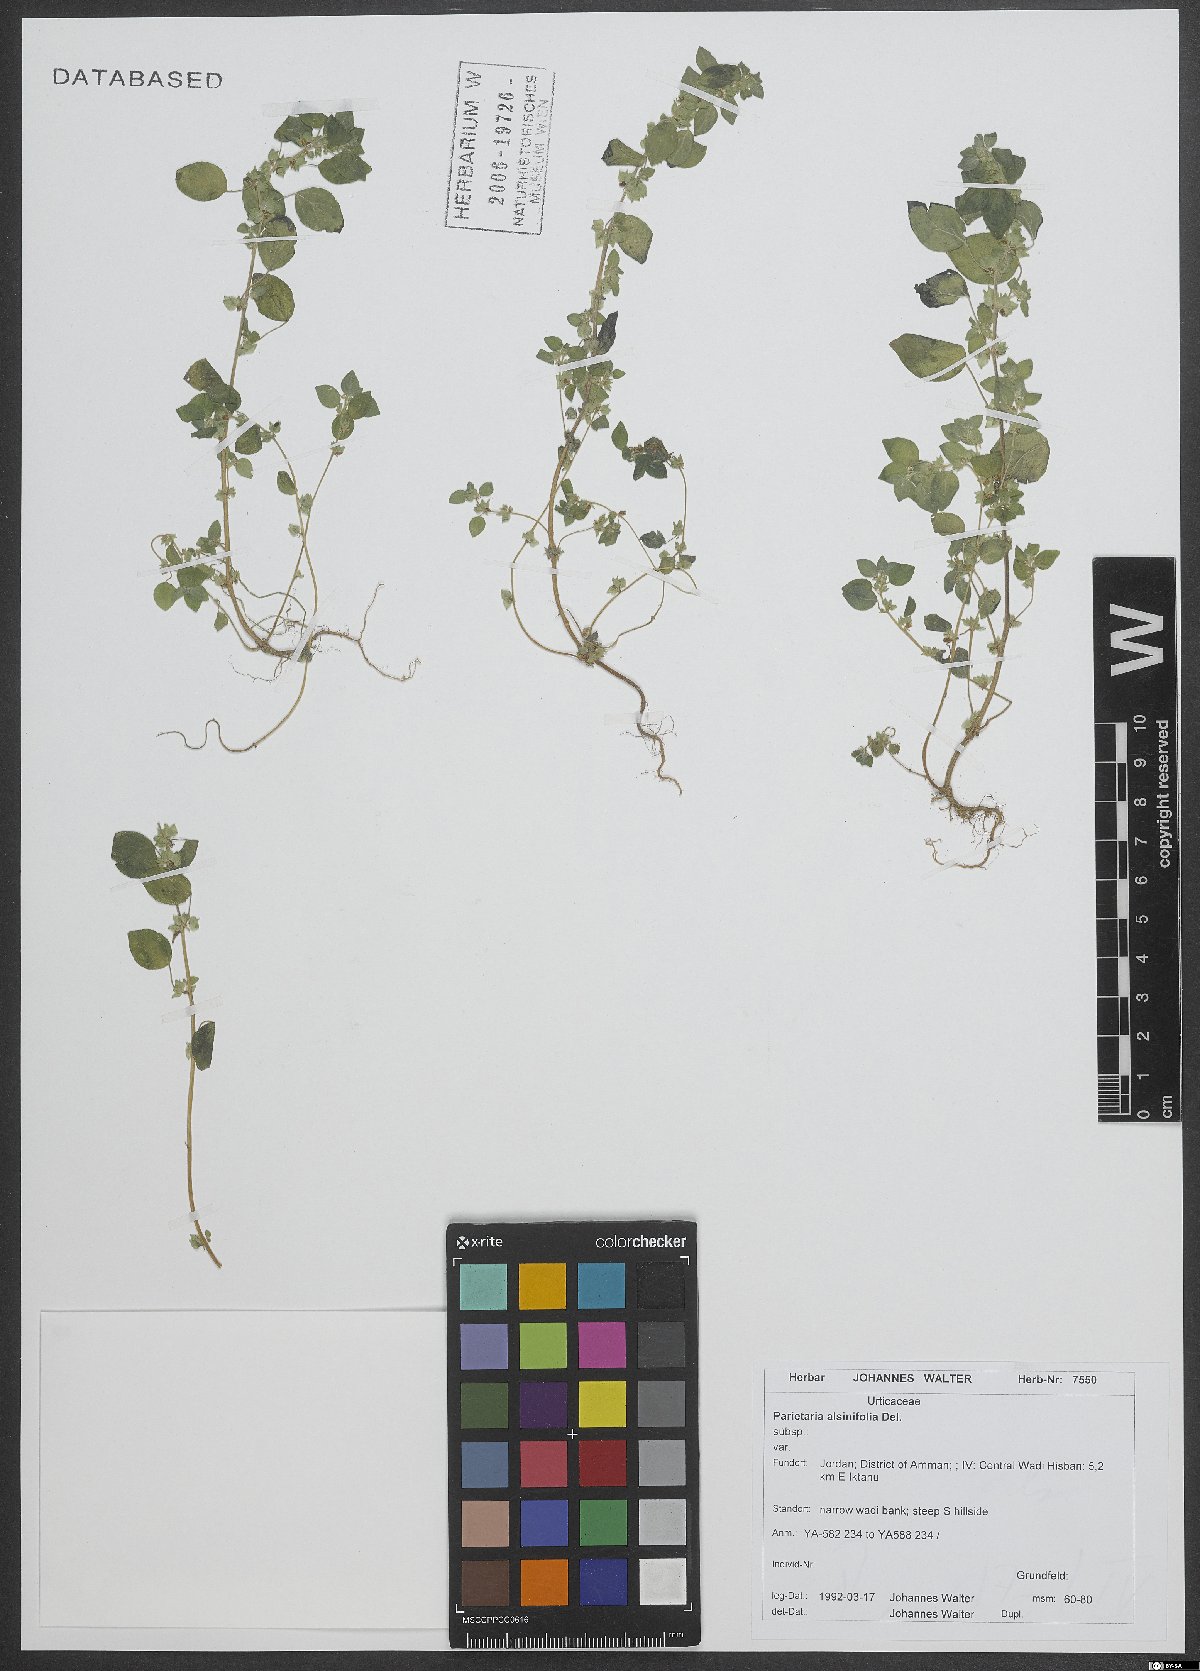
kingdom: Plantae
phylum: Tracheophyta
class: Magnoliopsida
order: Rosales
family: Urticaceae
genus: Parietaria
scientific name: Parietaria alsinifolia
